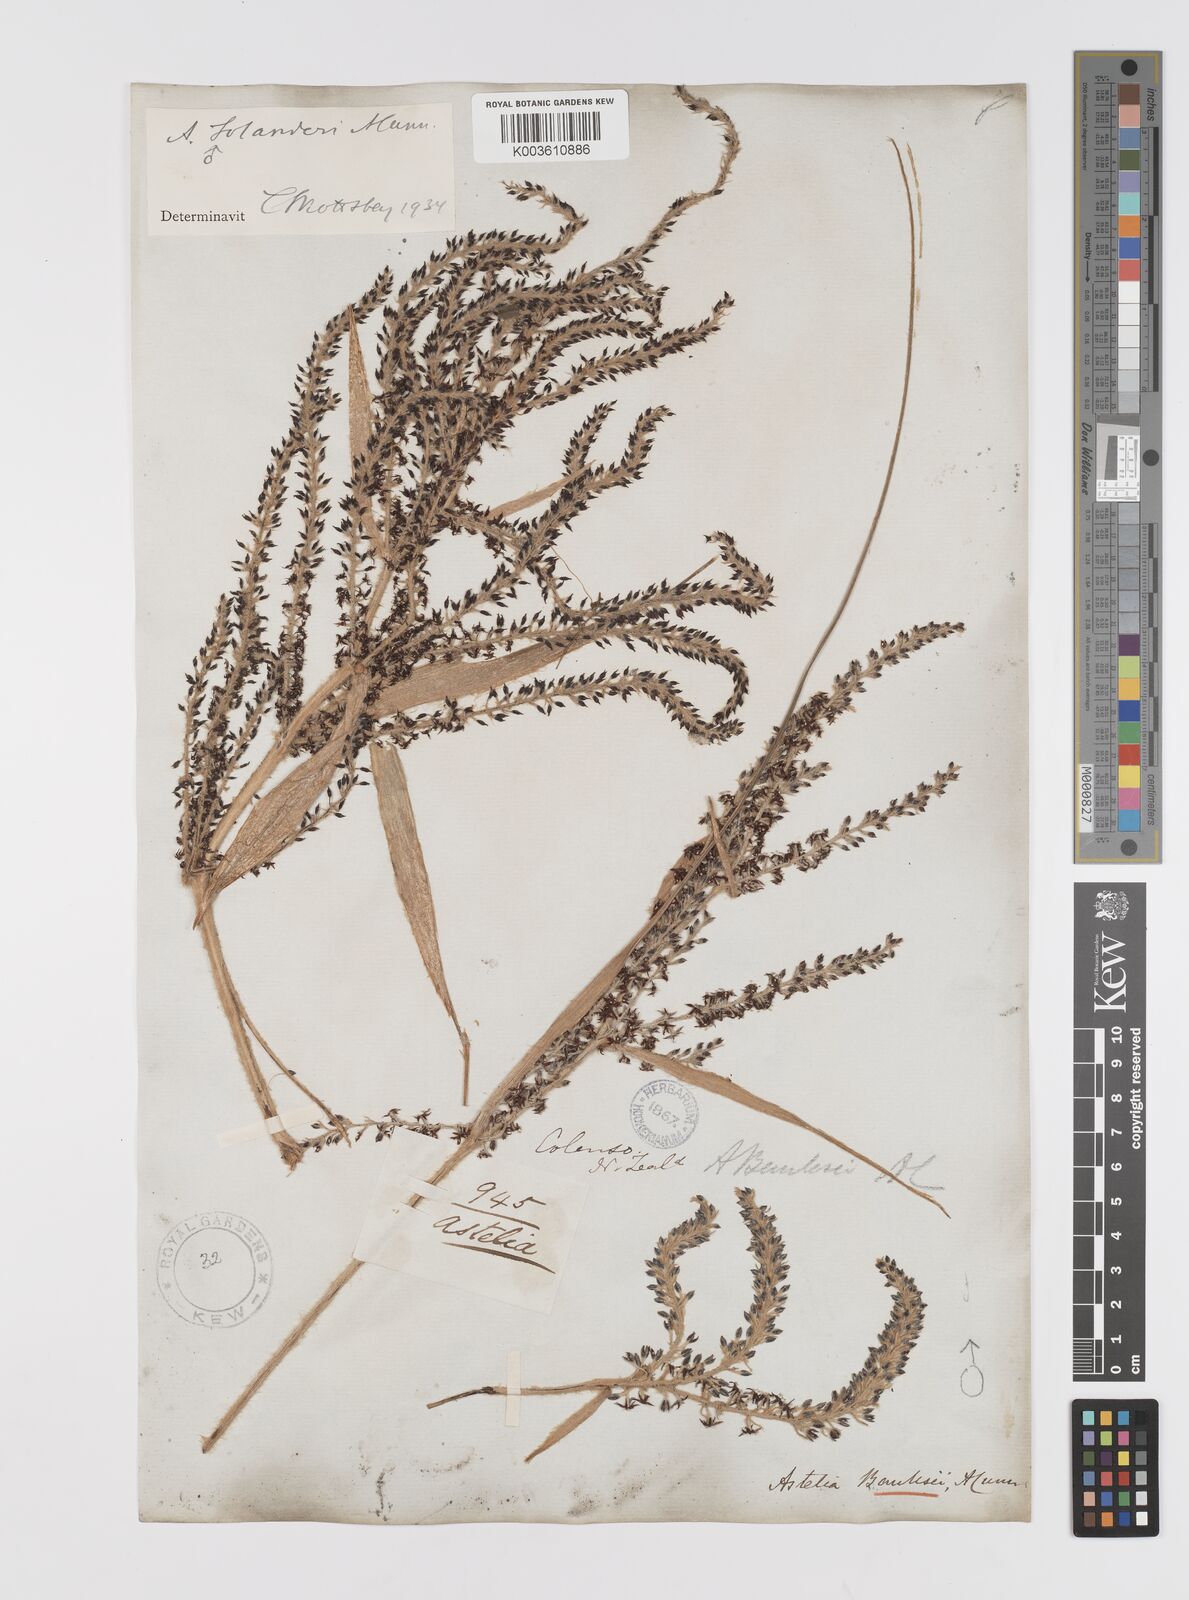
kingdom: Plantae
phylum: Tracheophyta
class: Liliopsida
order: Asparagales
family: Asteliaceae
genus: Astelia
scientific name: Astelia solandri
